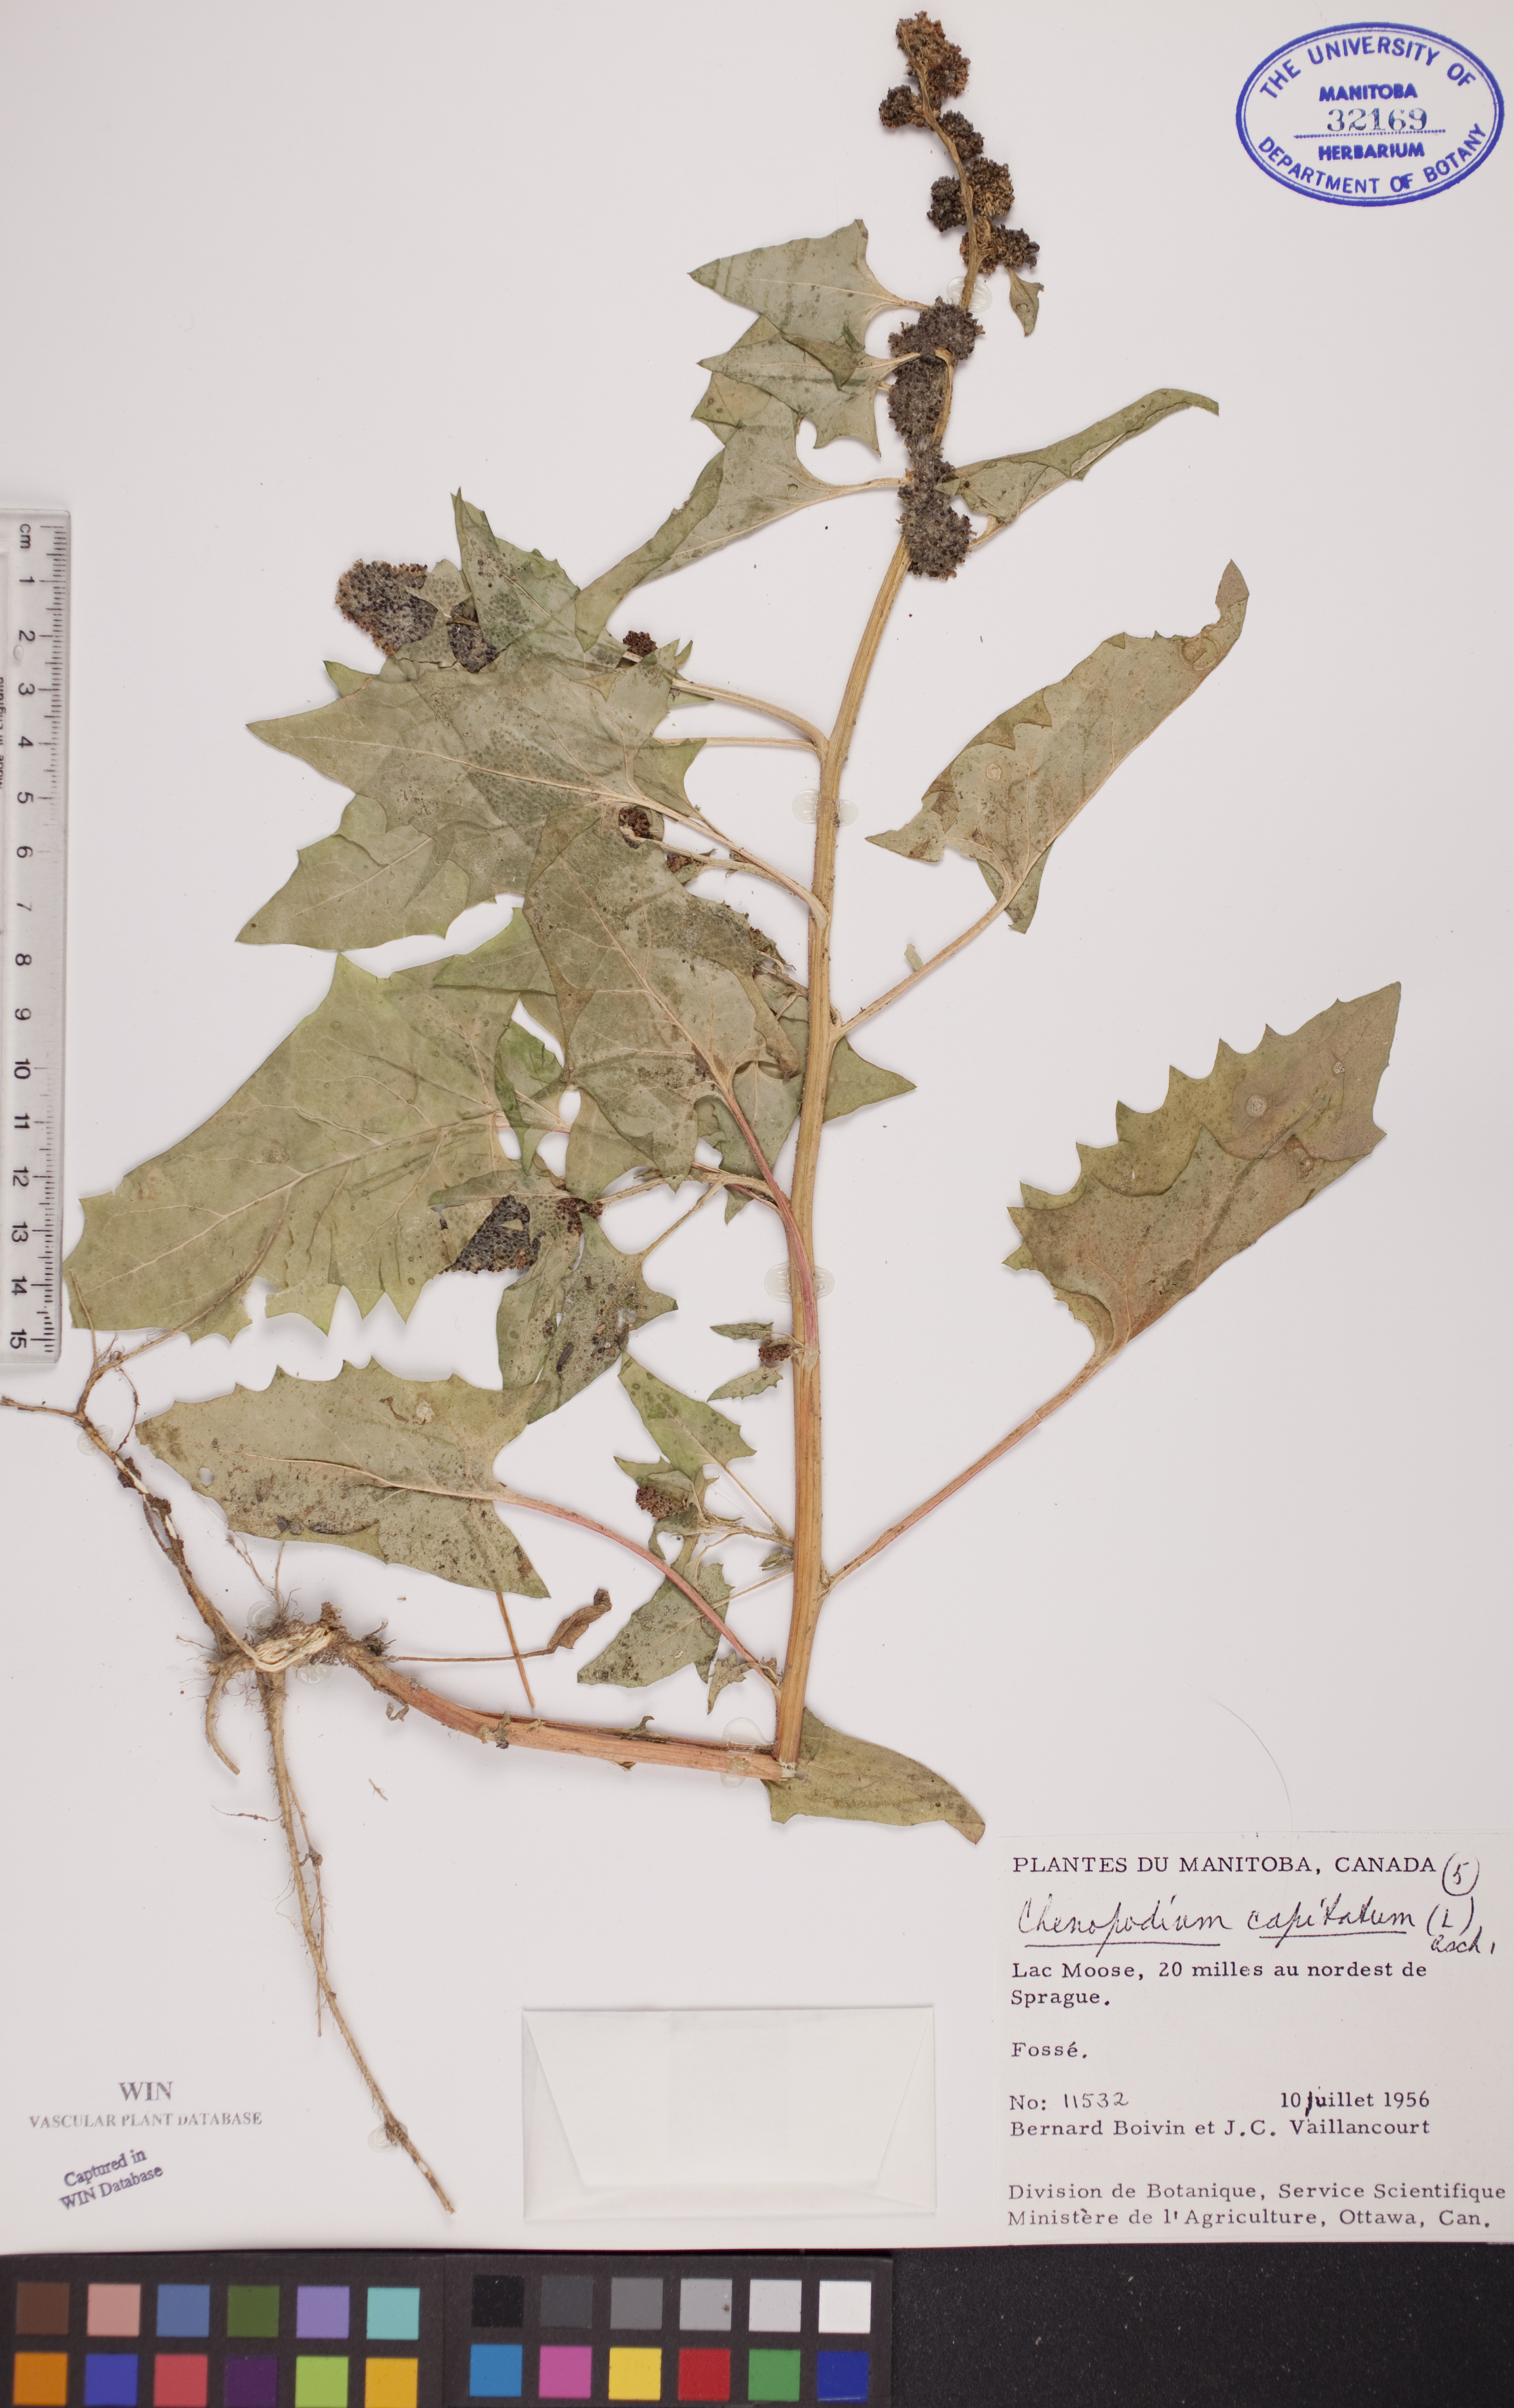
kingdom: Plantae
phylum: Tracheophyta
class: Magnoliopsida
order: Caryophyllales
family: Amaranthaceae
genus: Blitum
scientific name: Blitum capitatum
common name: Strawberry-blight
